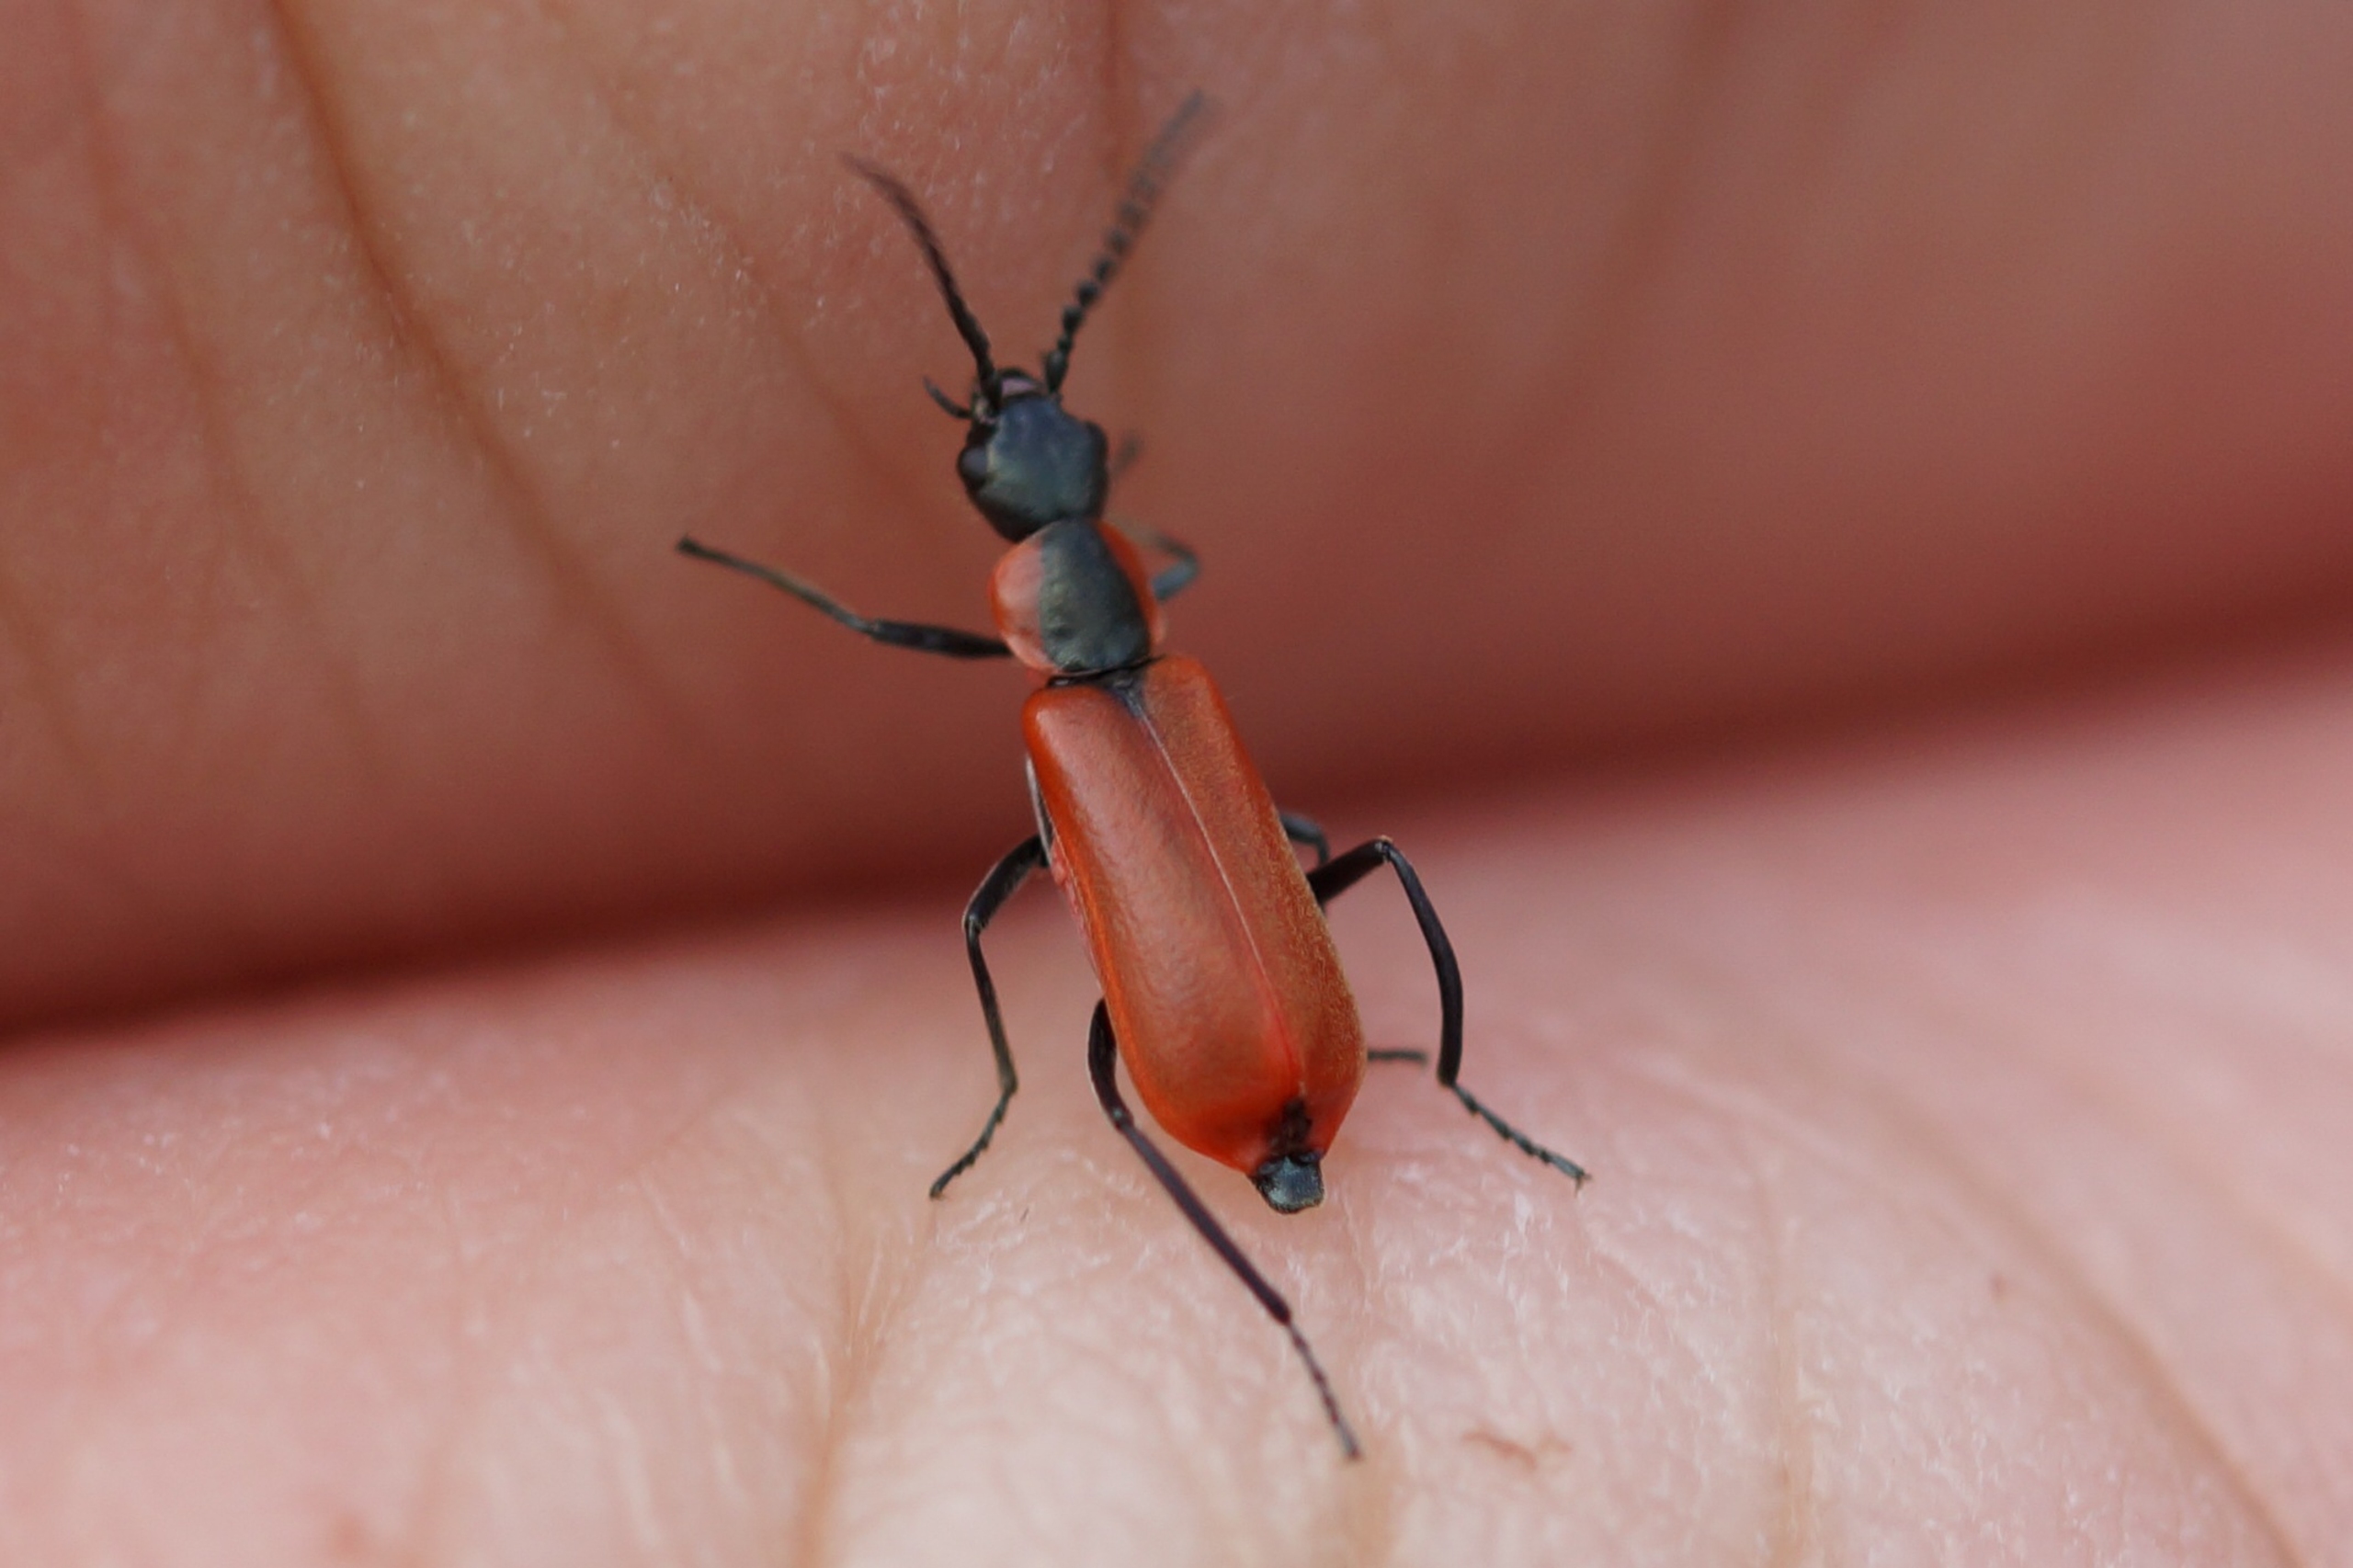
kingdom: Animalia
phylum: Arthropoda
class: Insecta
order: Coleoptera
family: Melyridae
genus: Anthocomus
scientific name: Anthocomus rufus
